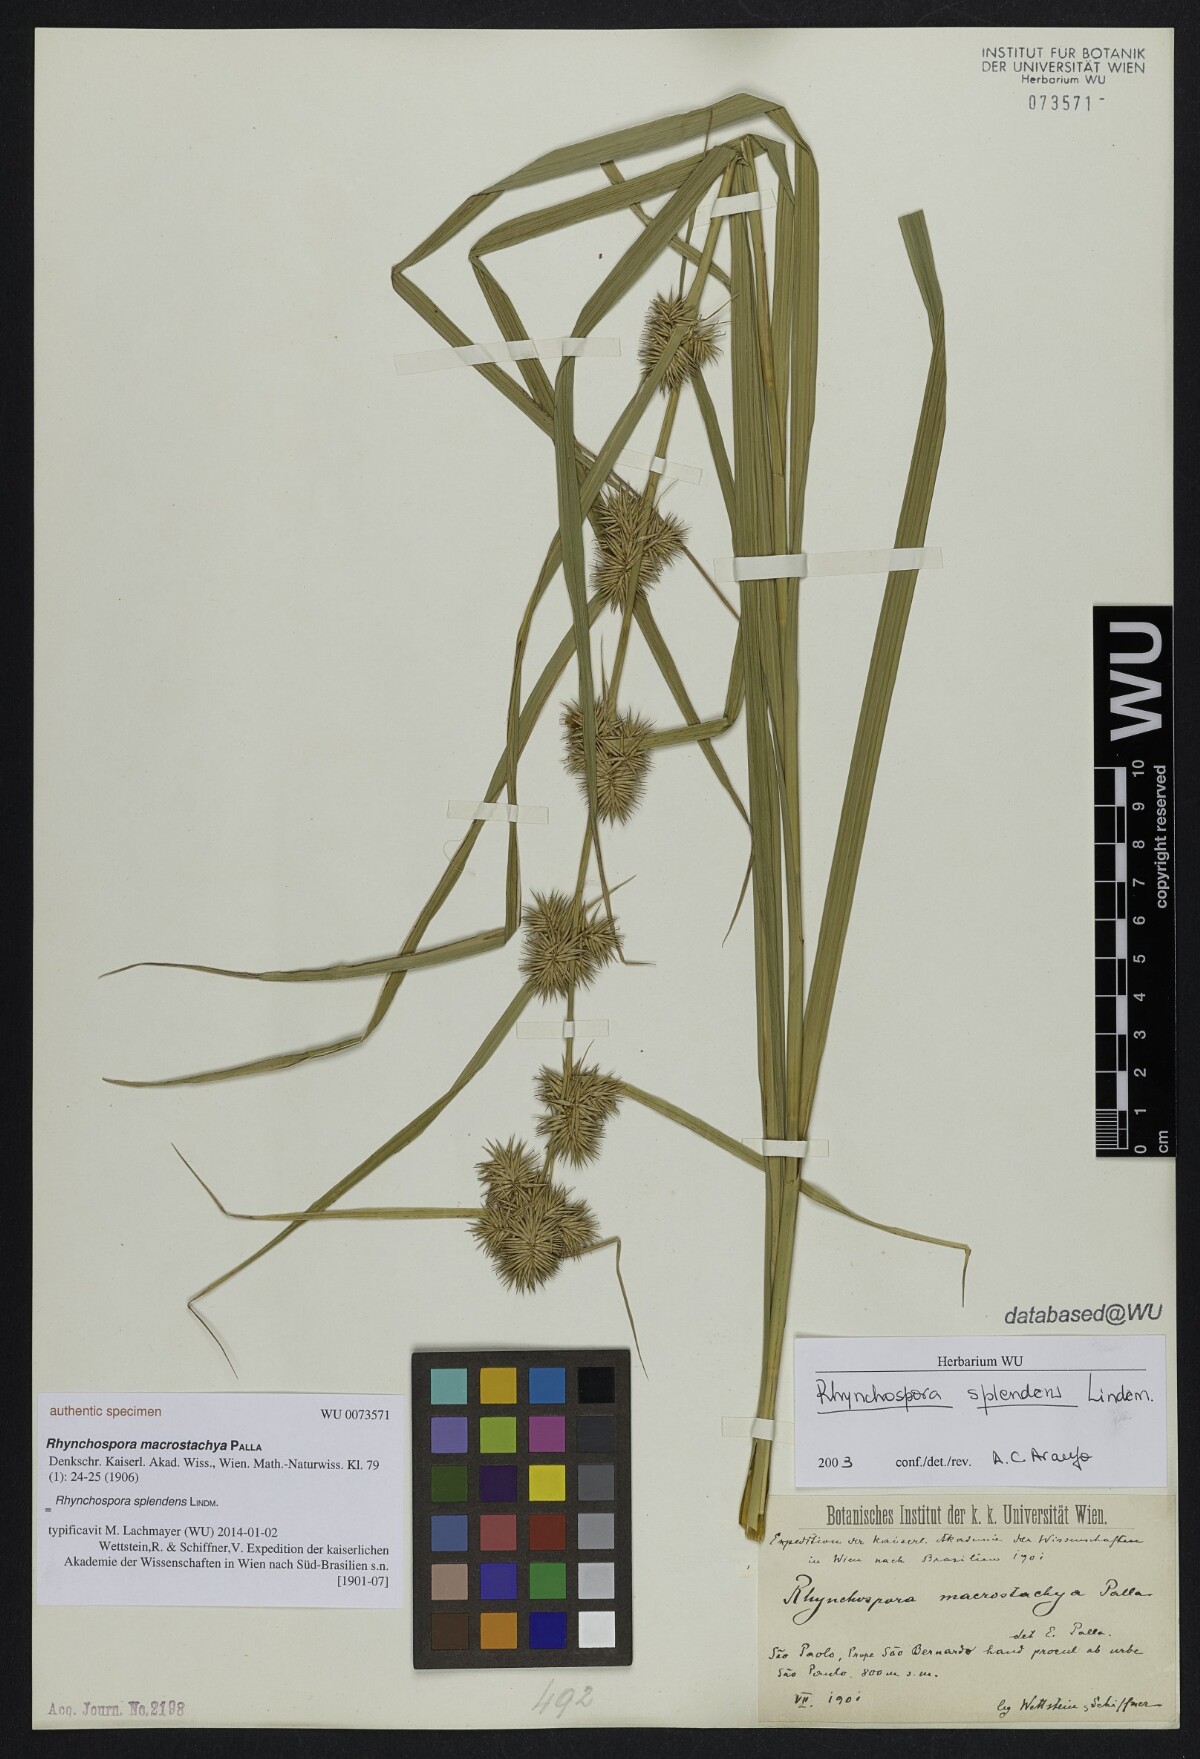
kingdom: Plantae
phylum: Tracheophyta
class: Liliopsida
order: Poales
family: Cyperaceae
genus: Rhynchospora
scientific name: Rhynchospora splendens
